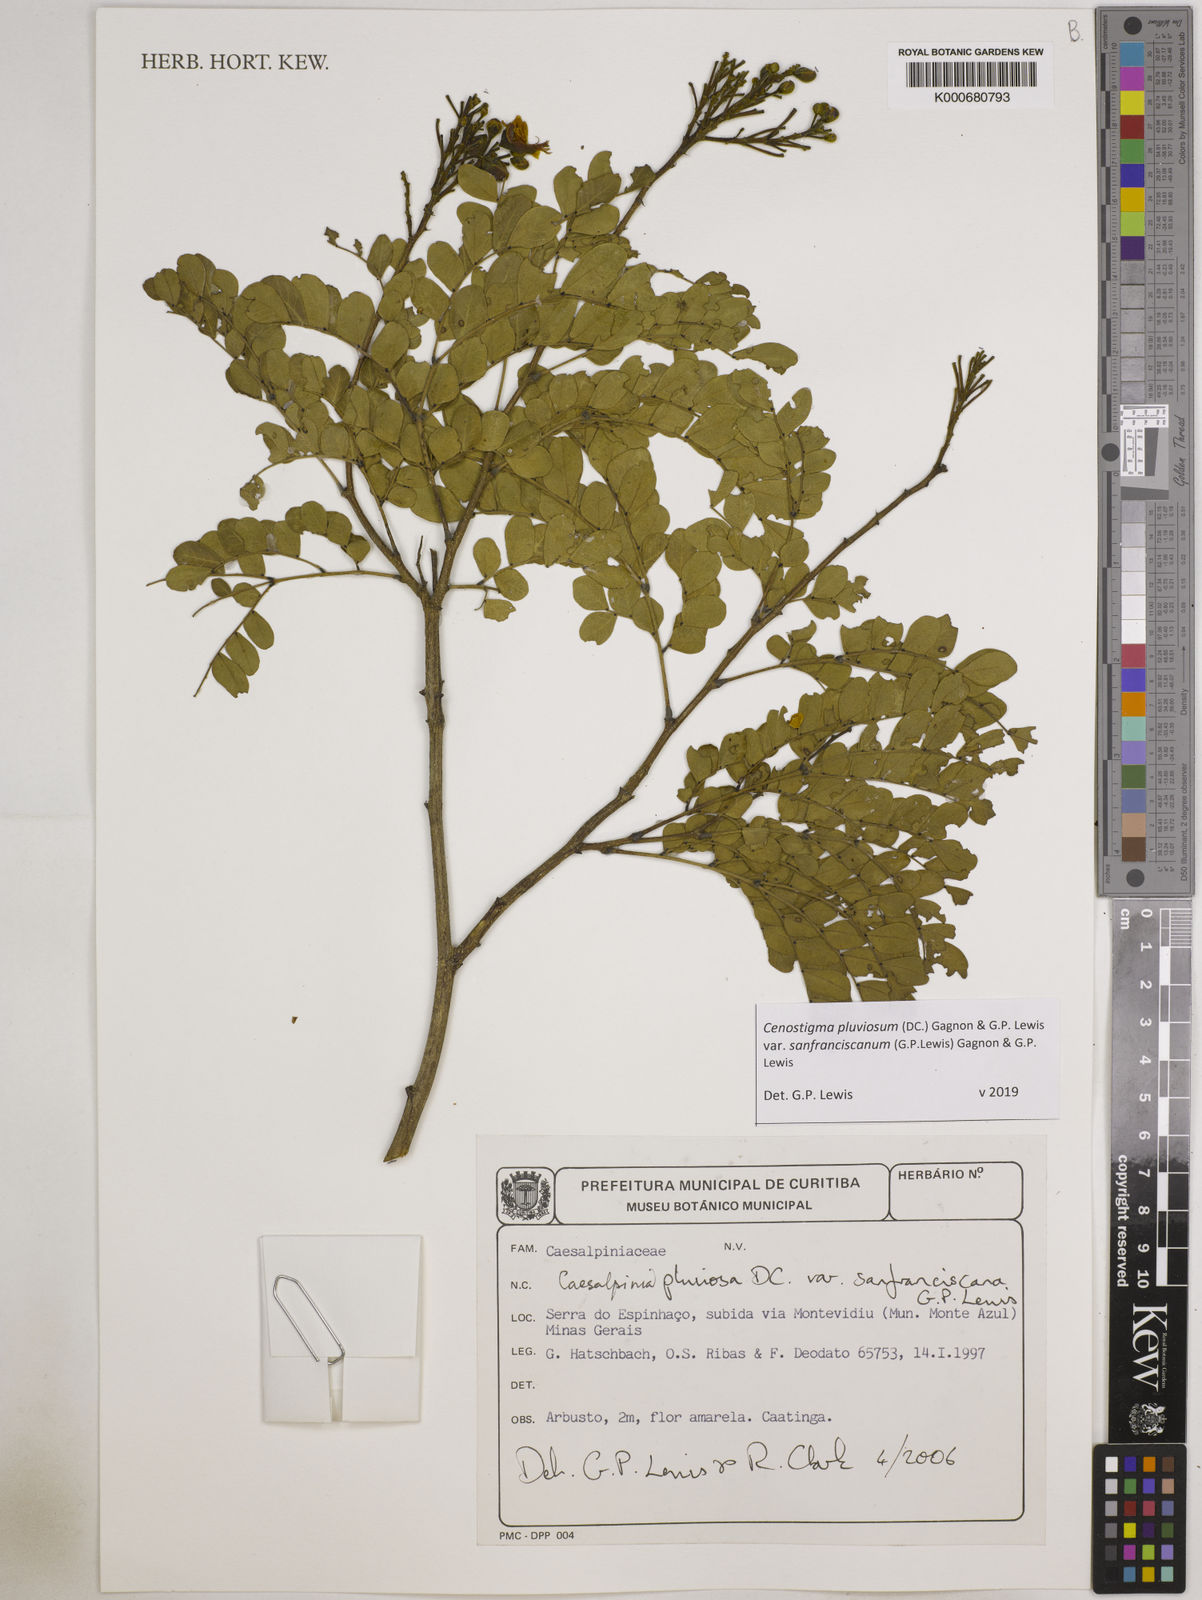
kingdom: Plantae
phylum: Tracheophyta
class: Magnoliopsida
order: Fabales
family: Fabaceae
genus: Cenostigma
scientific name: Cenostigma pluviosum
